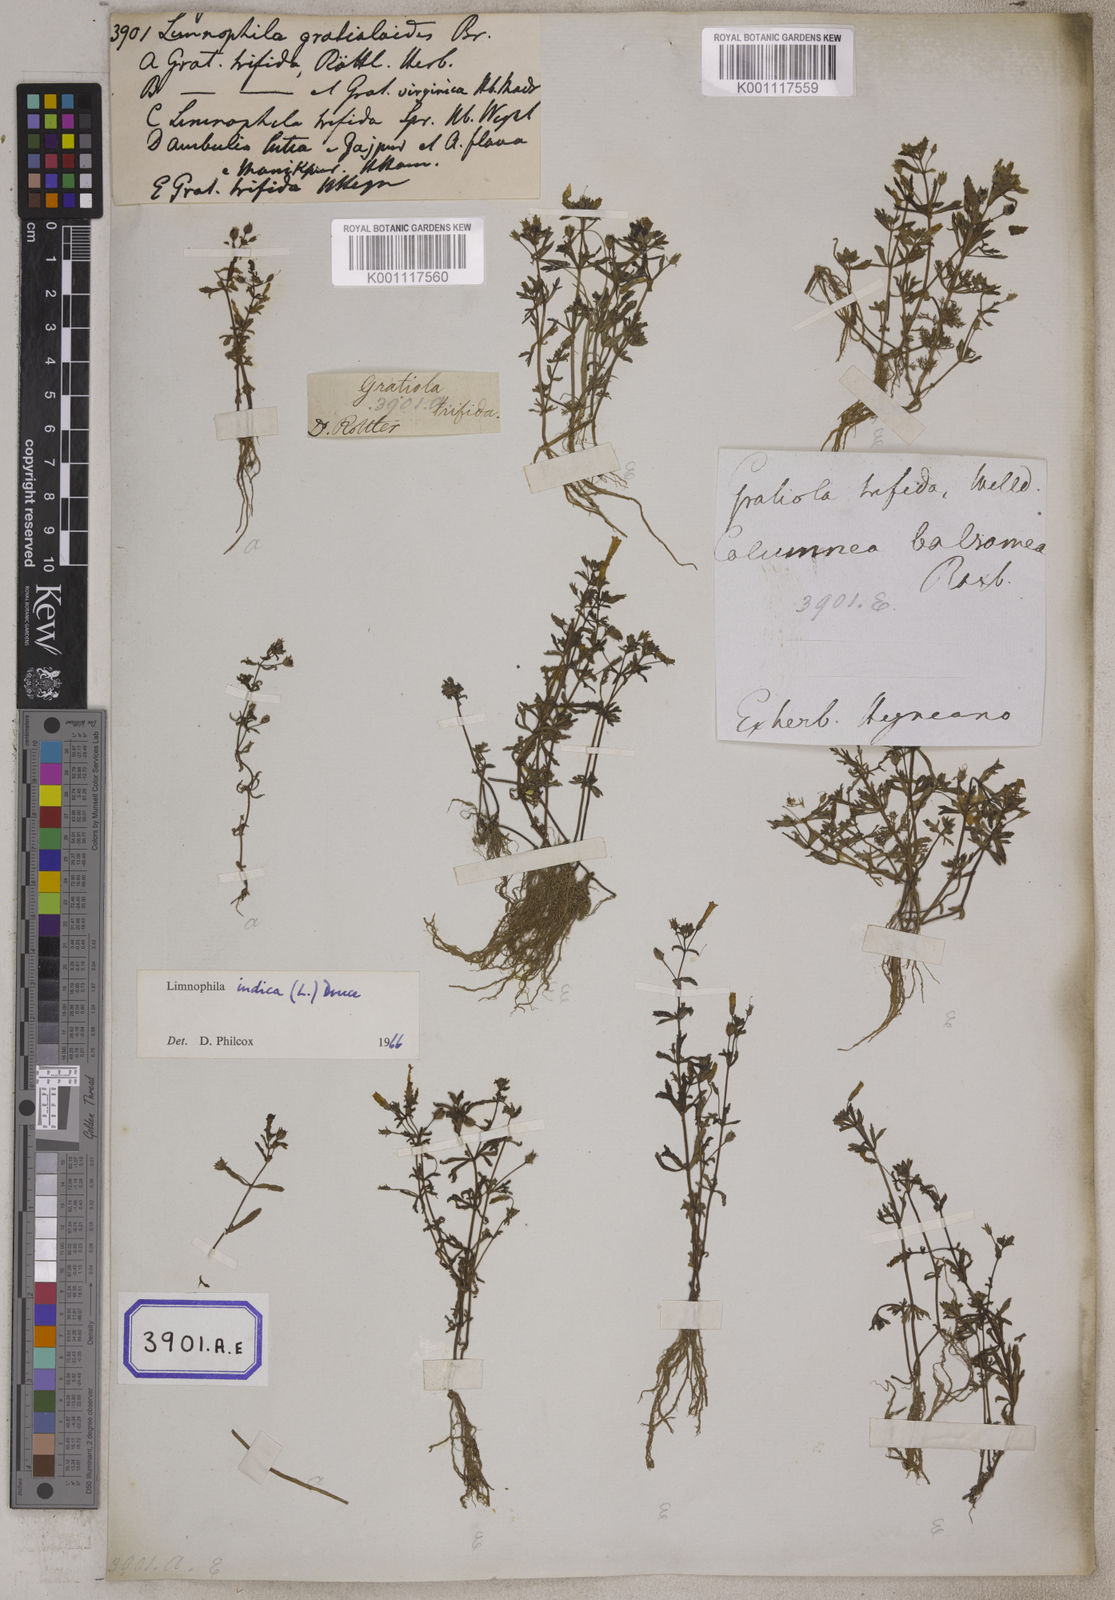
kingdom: Plantae
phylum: Tracheophyta
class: Magnoliopsida
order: Lamiales
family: Plantaginaceae
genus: Limnophila
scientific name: Limnophila indica
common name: Indian marshweed
